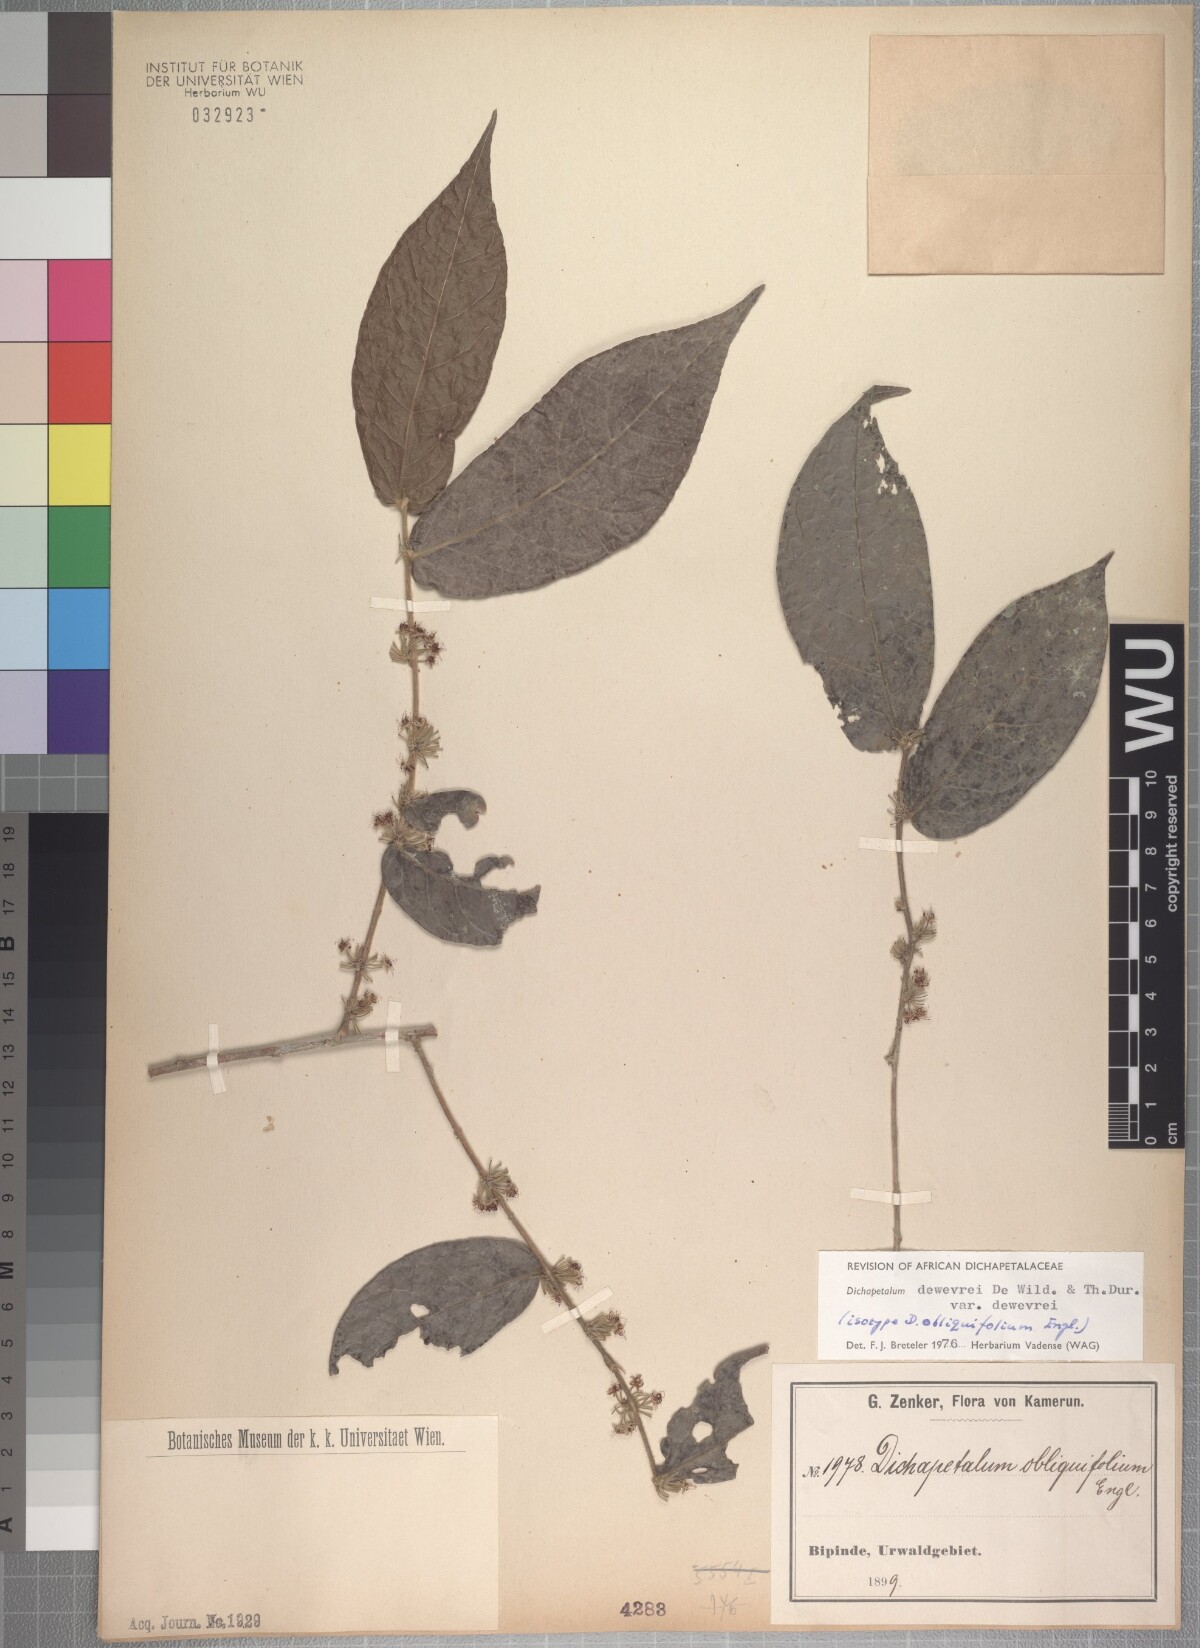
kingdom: Plantae
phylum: Tracheophyta
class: Magnoliopsida
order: Malpighiales
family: Dichapetalaceae
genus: Dichapetalum
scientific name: Dichapetalum dewevrei
